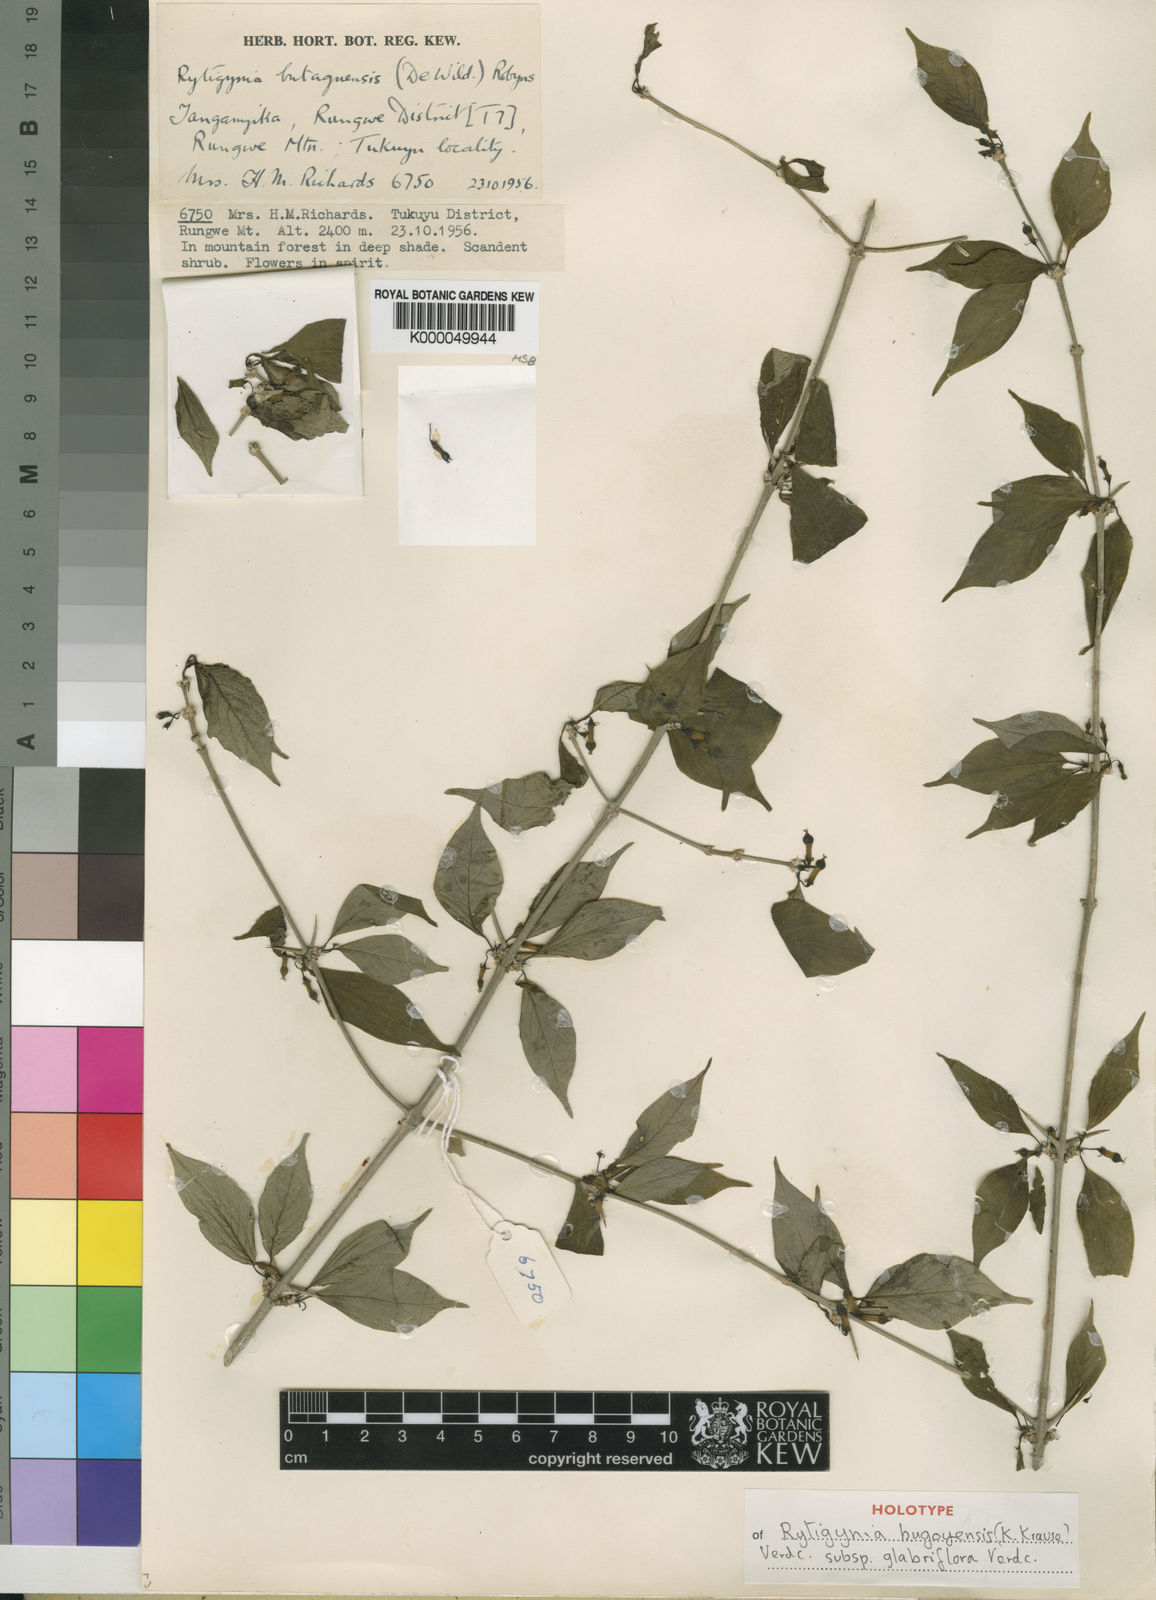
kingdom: Plantae
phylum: Tracheophyta
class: Magnoliopsida
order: Gentianales
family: Rubiaceae
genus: Rytigynia
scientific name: Rytigynia bugoyensis
